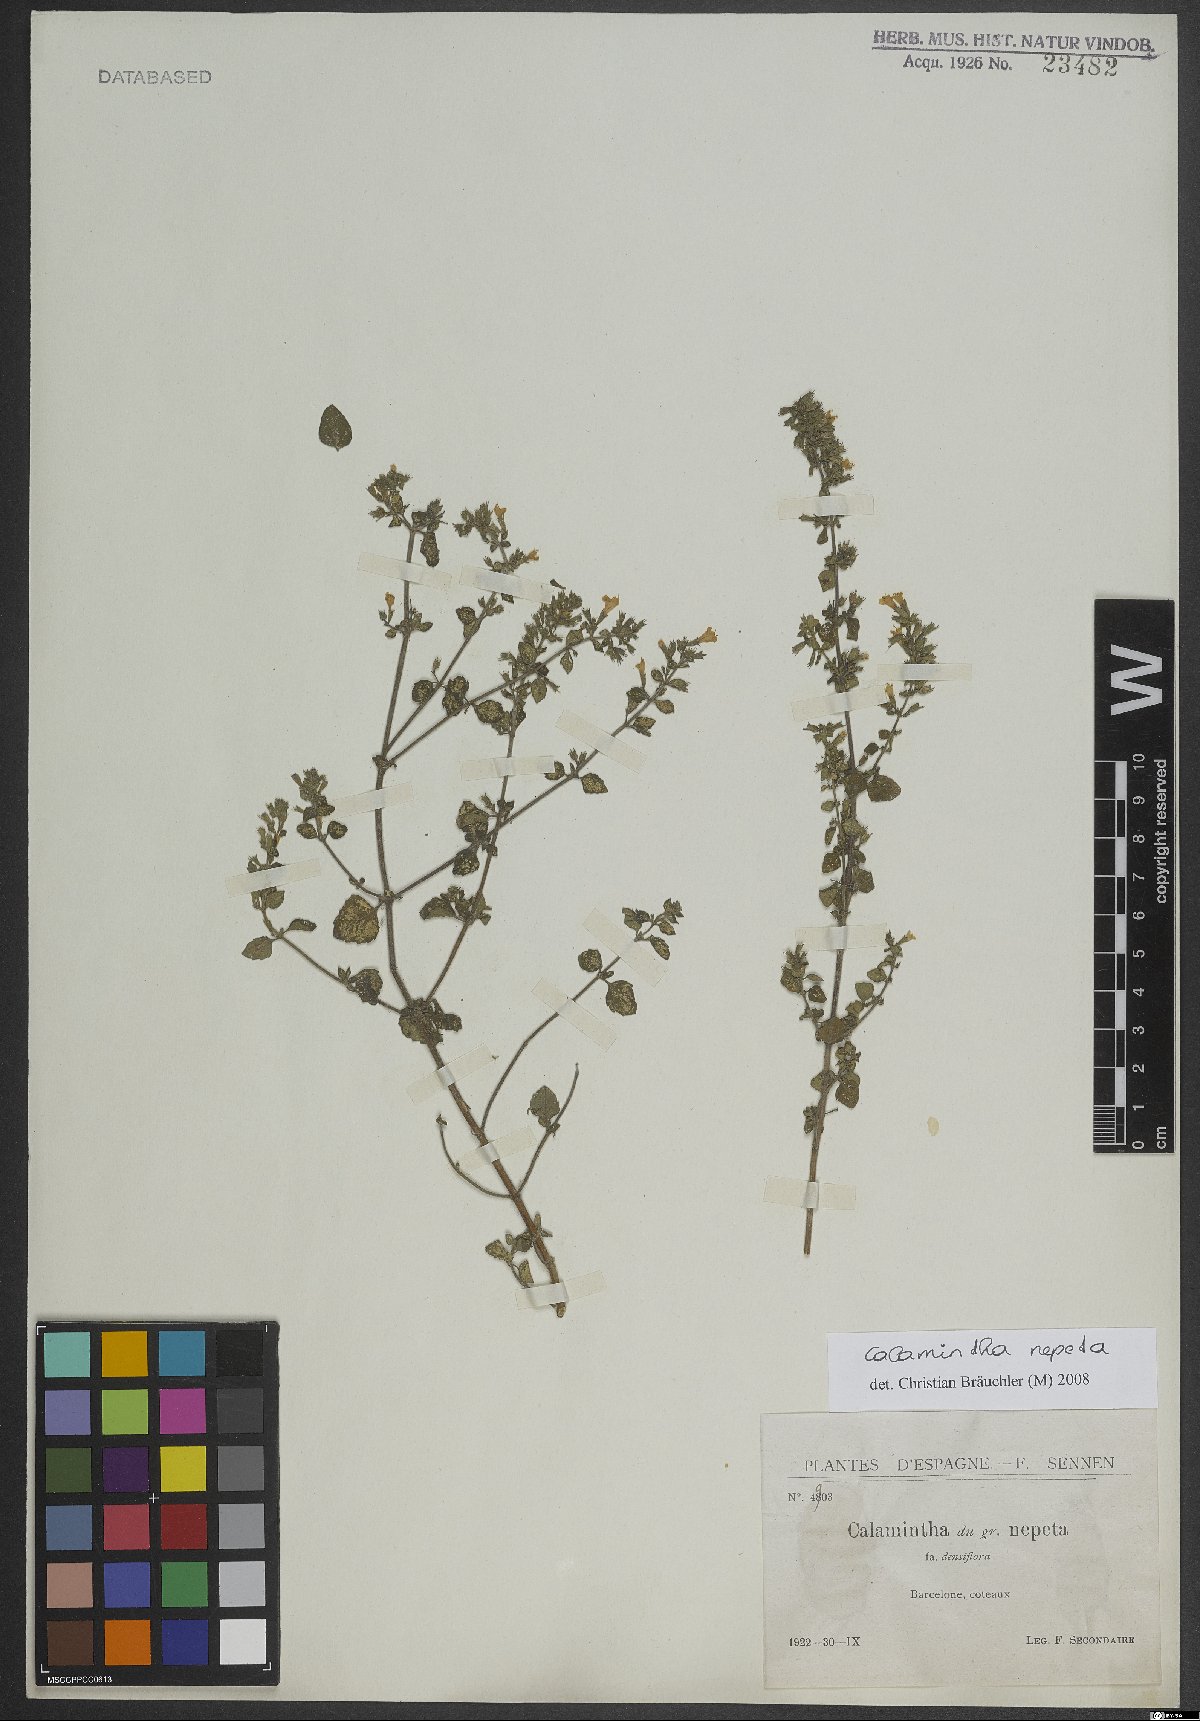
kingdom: Plantae
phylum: Tracheophyta
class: Magnoliopsida
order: Lamiales
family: Lamiaceae
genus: Clinopodium
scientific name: Clinopodium nepeta
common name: Lesser calamint
